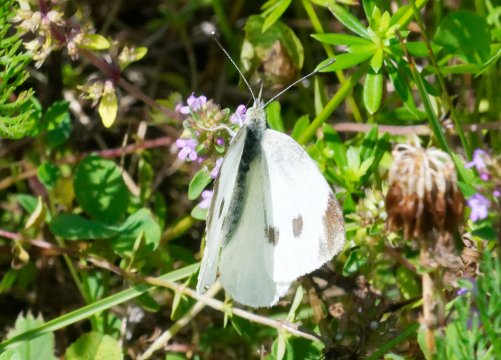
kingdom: Animalia
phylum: Arthropoda
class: Insecta
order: Lepidoptera
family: Pieridae
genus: Pieris
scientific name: Pieris rapae
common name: Cabbage White
